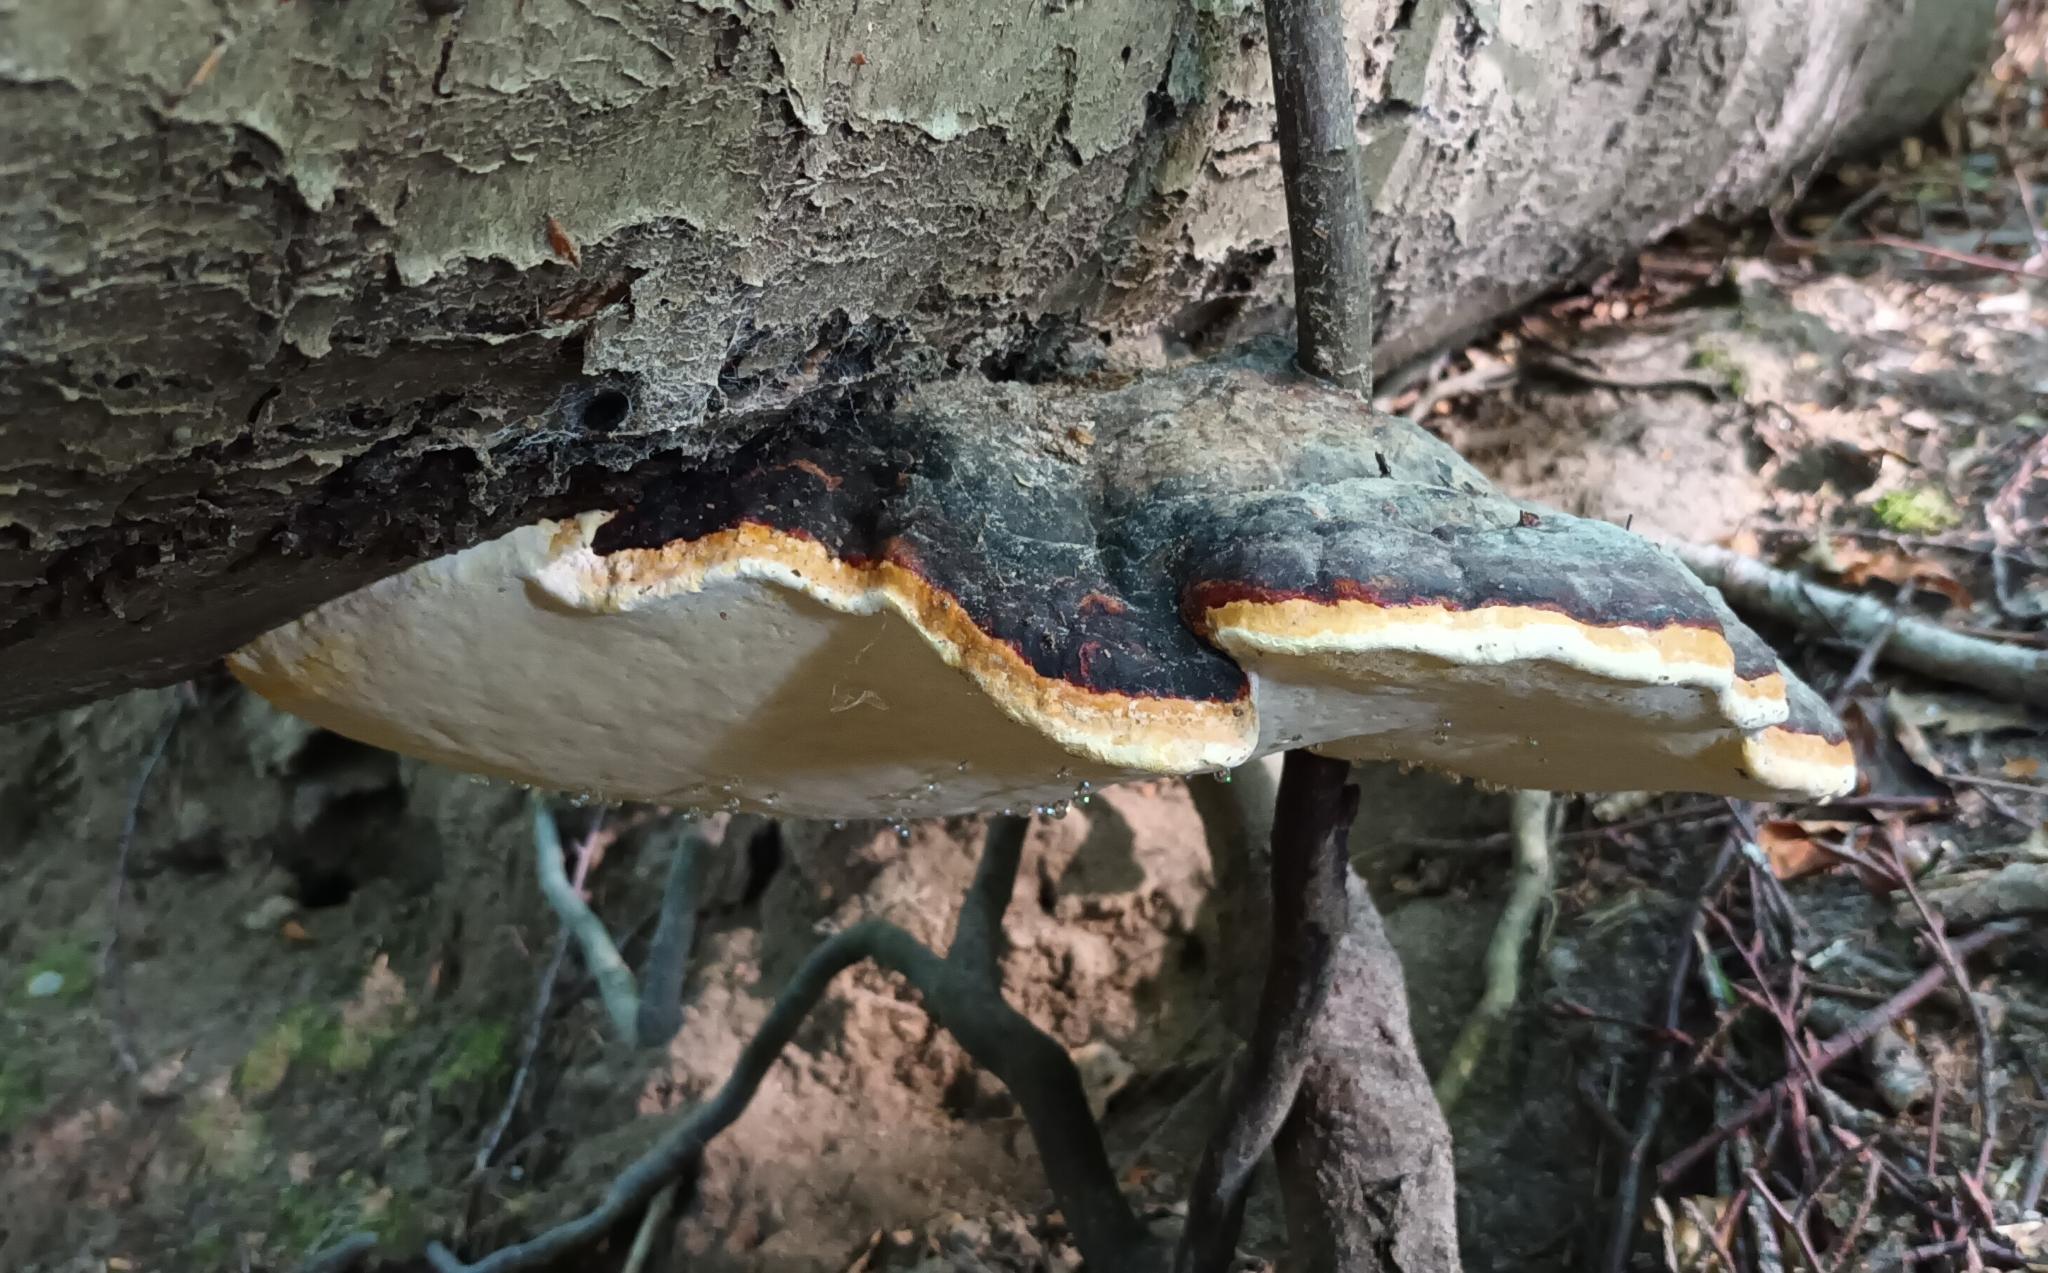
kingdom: Fungi
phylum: Basidiomycota
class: Agaricomycetes
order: Polyporales
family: Fomitopsidaceae
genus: Fomitopsis
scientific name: Fomitopsis pinicola
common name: Randbæltet hovporesvamp
